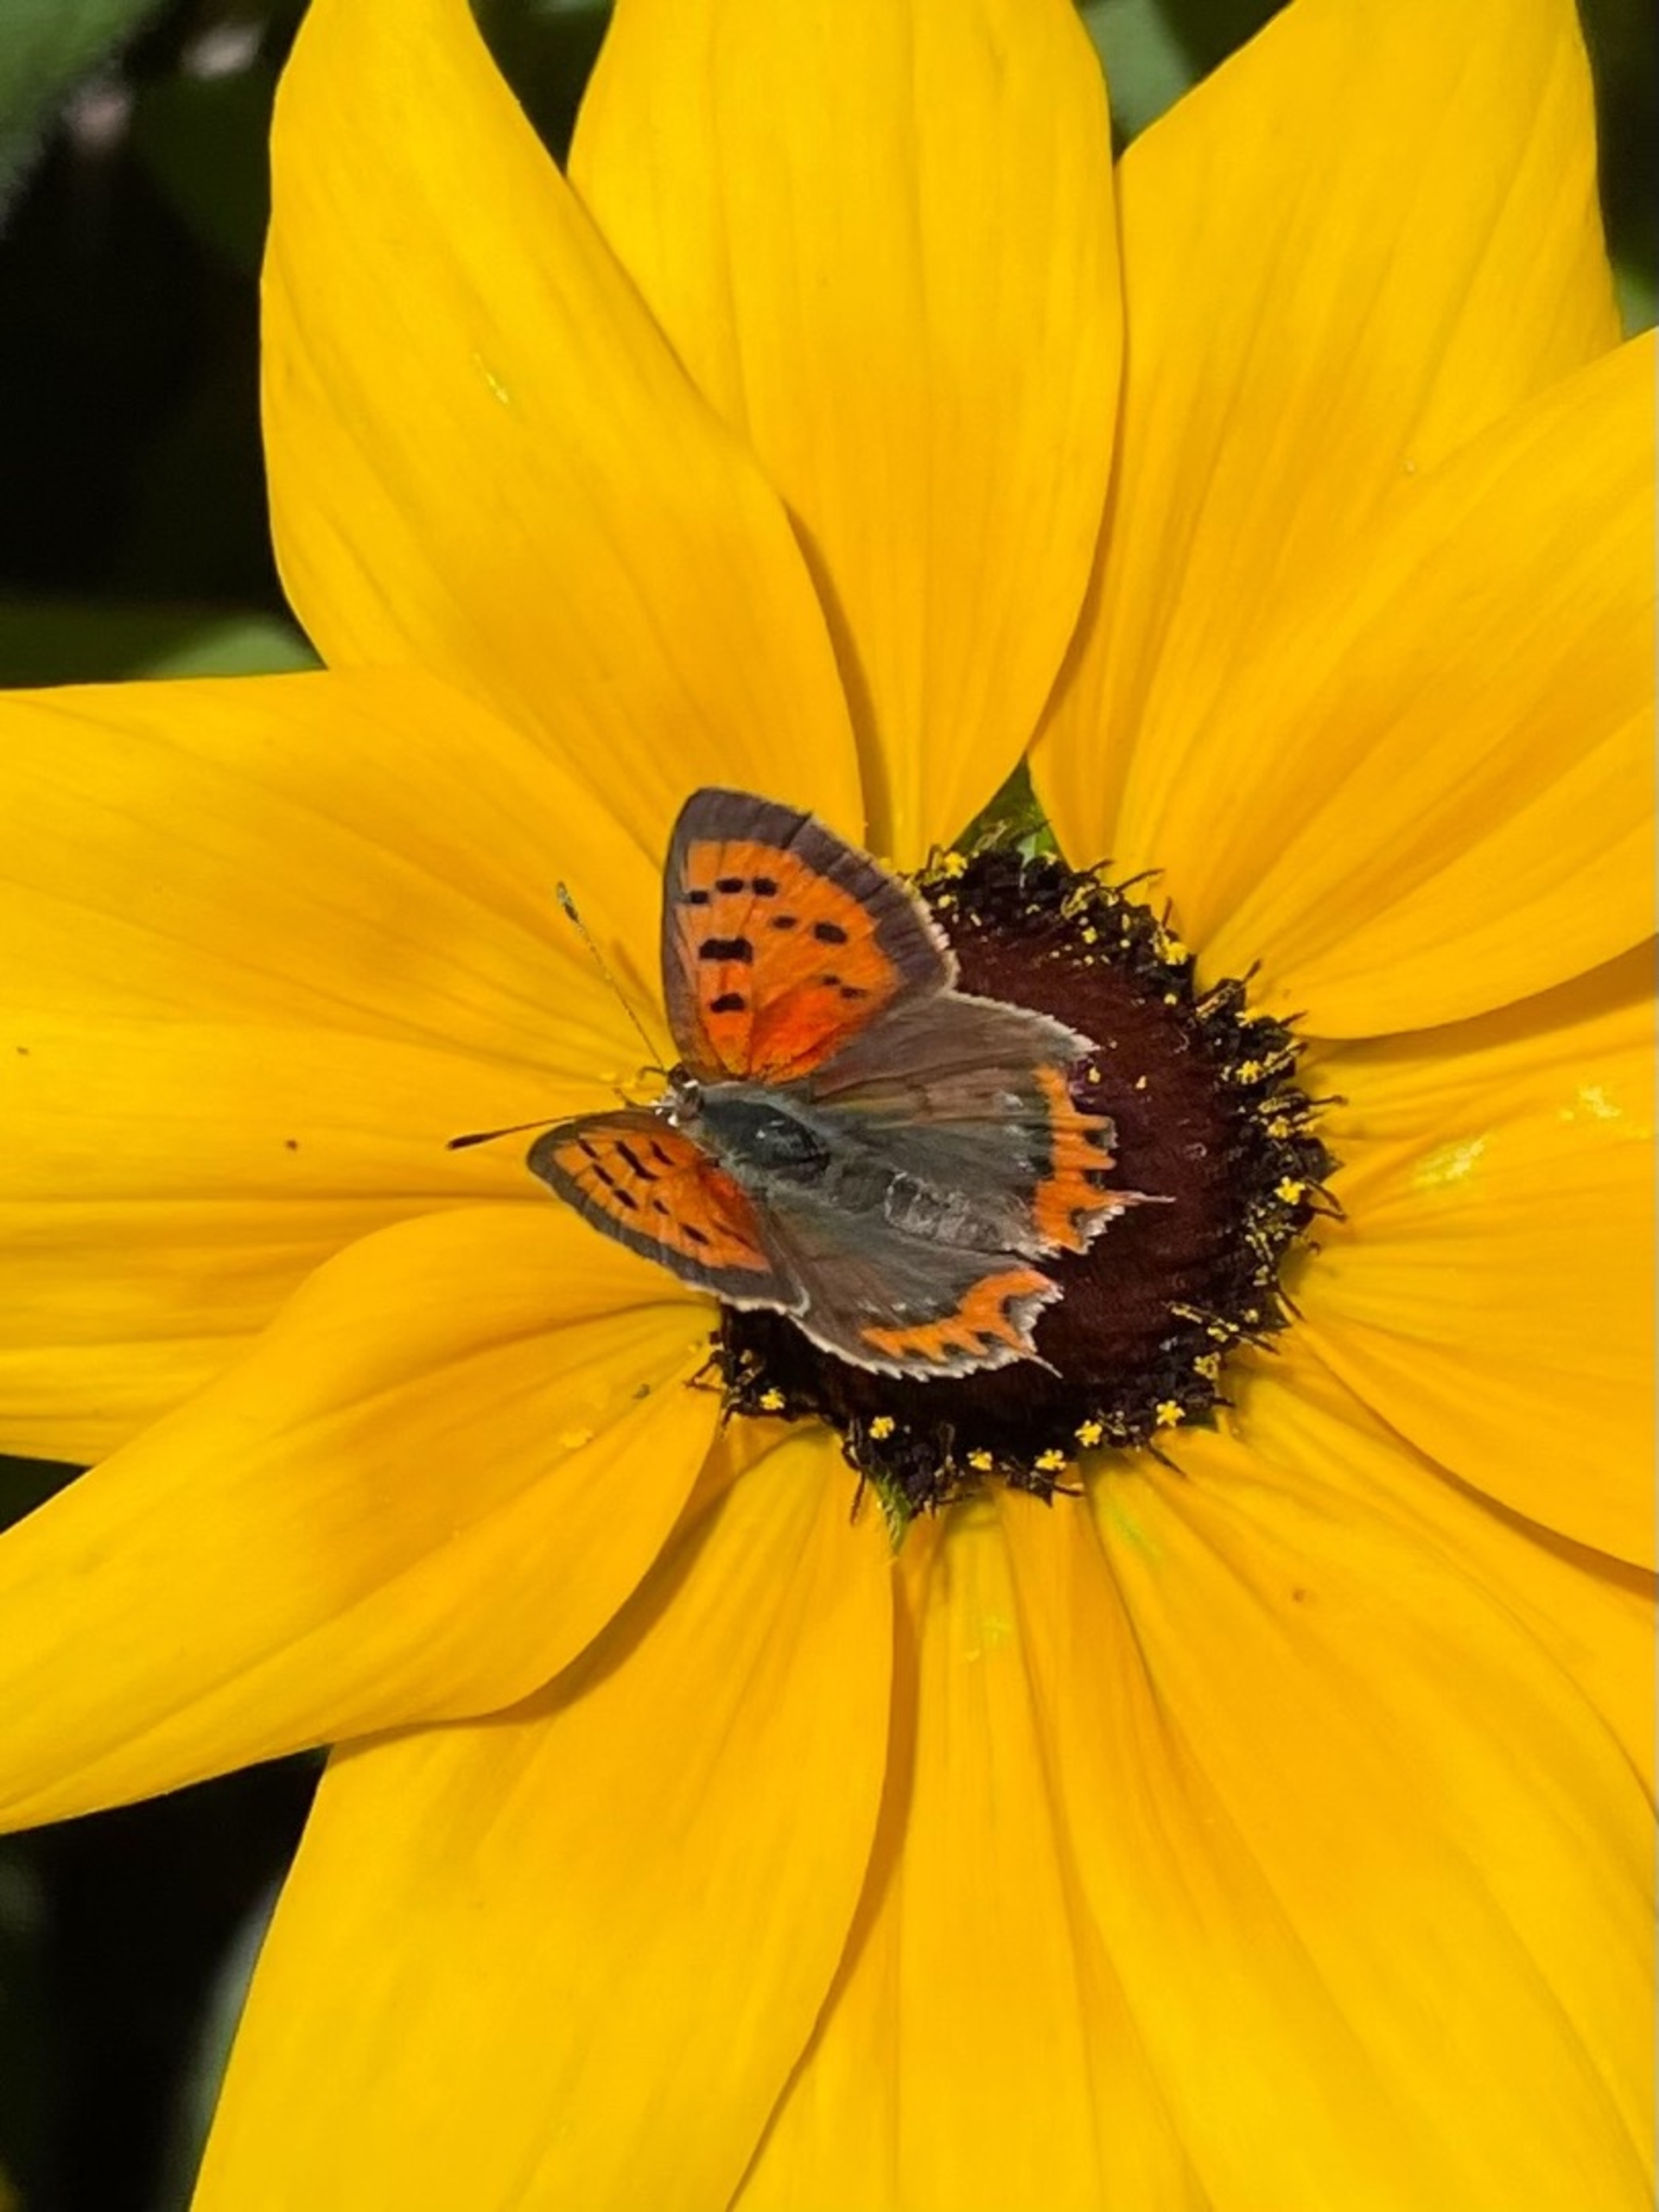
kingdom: Animalia
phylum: Arthropoda
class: Insecta
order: Lepidoptera
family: Lycaenidae
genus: Lycaena
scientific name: Lycaena phlaeas
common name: Lille ildfugl
